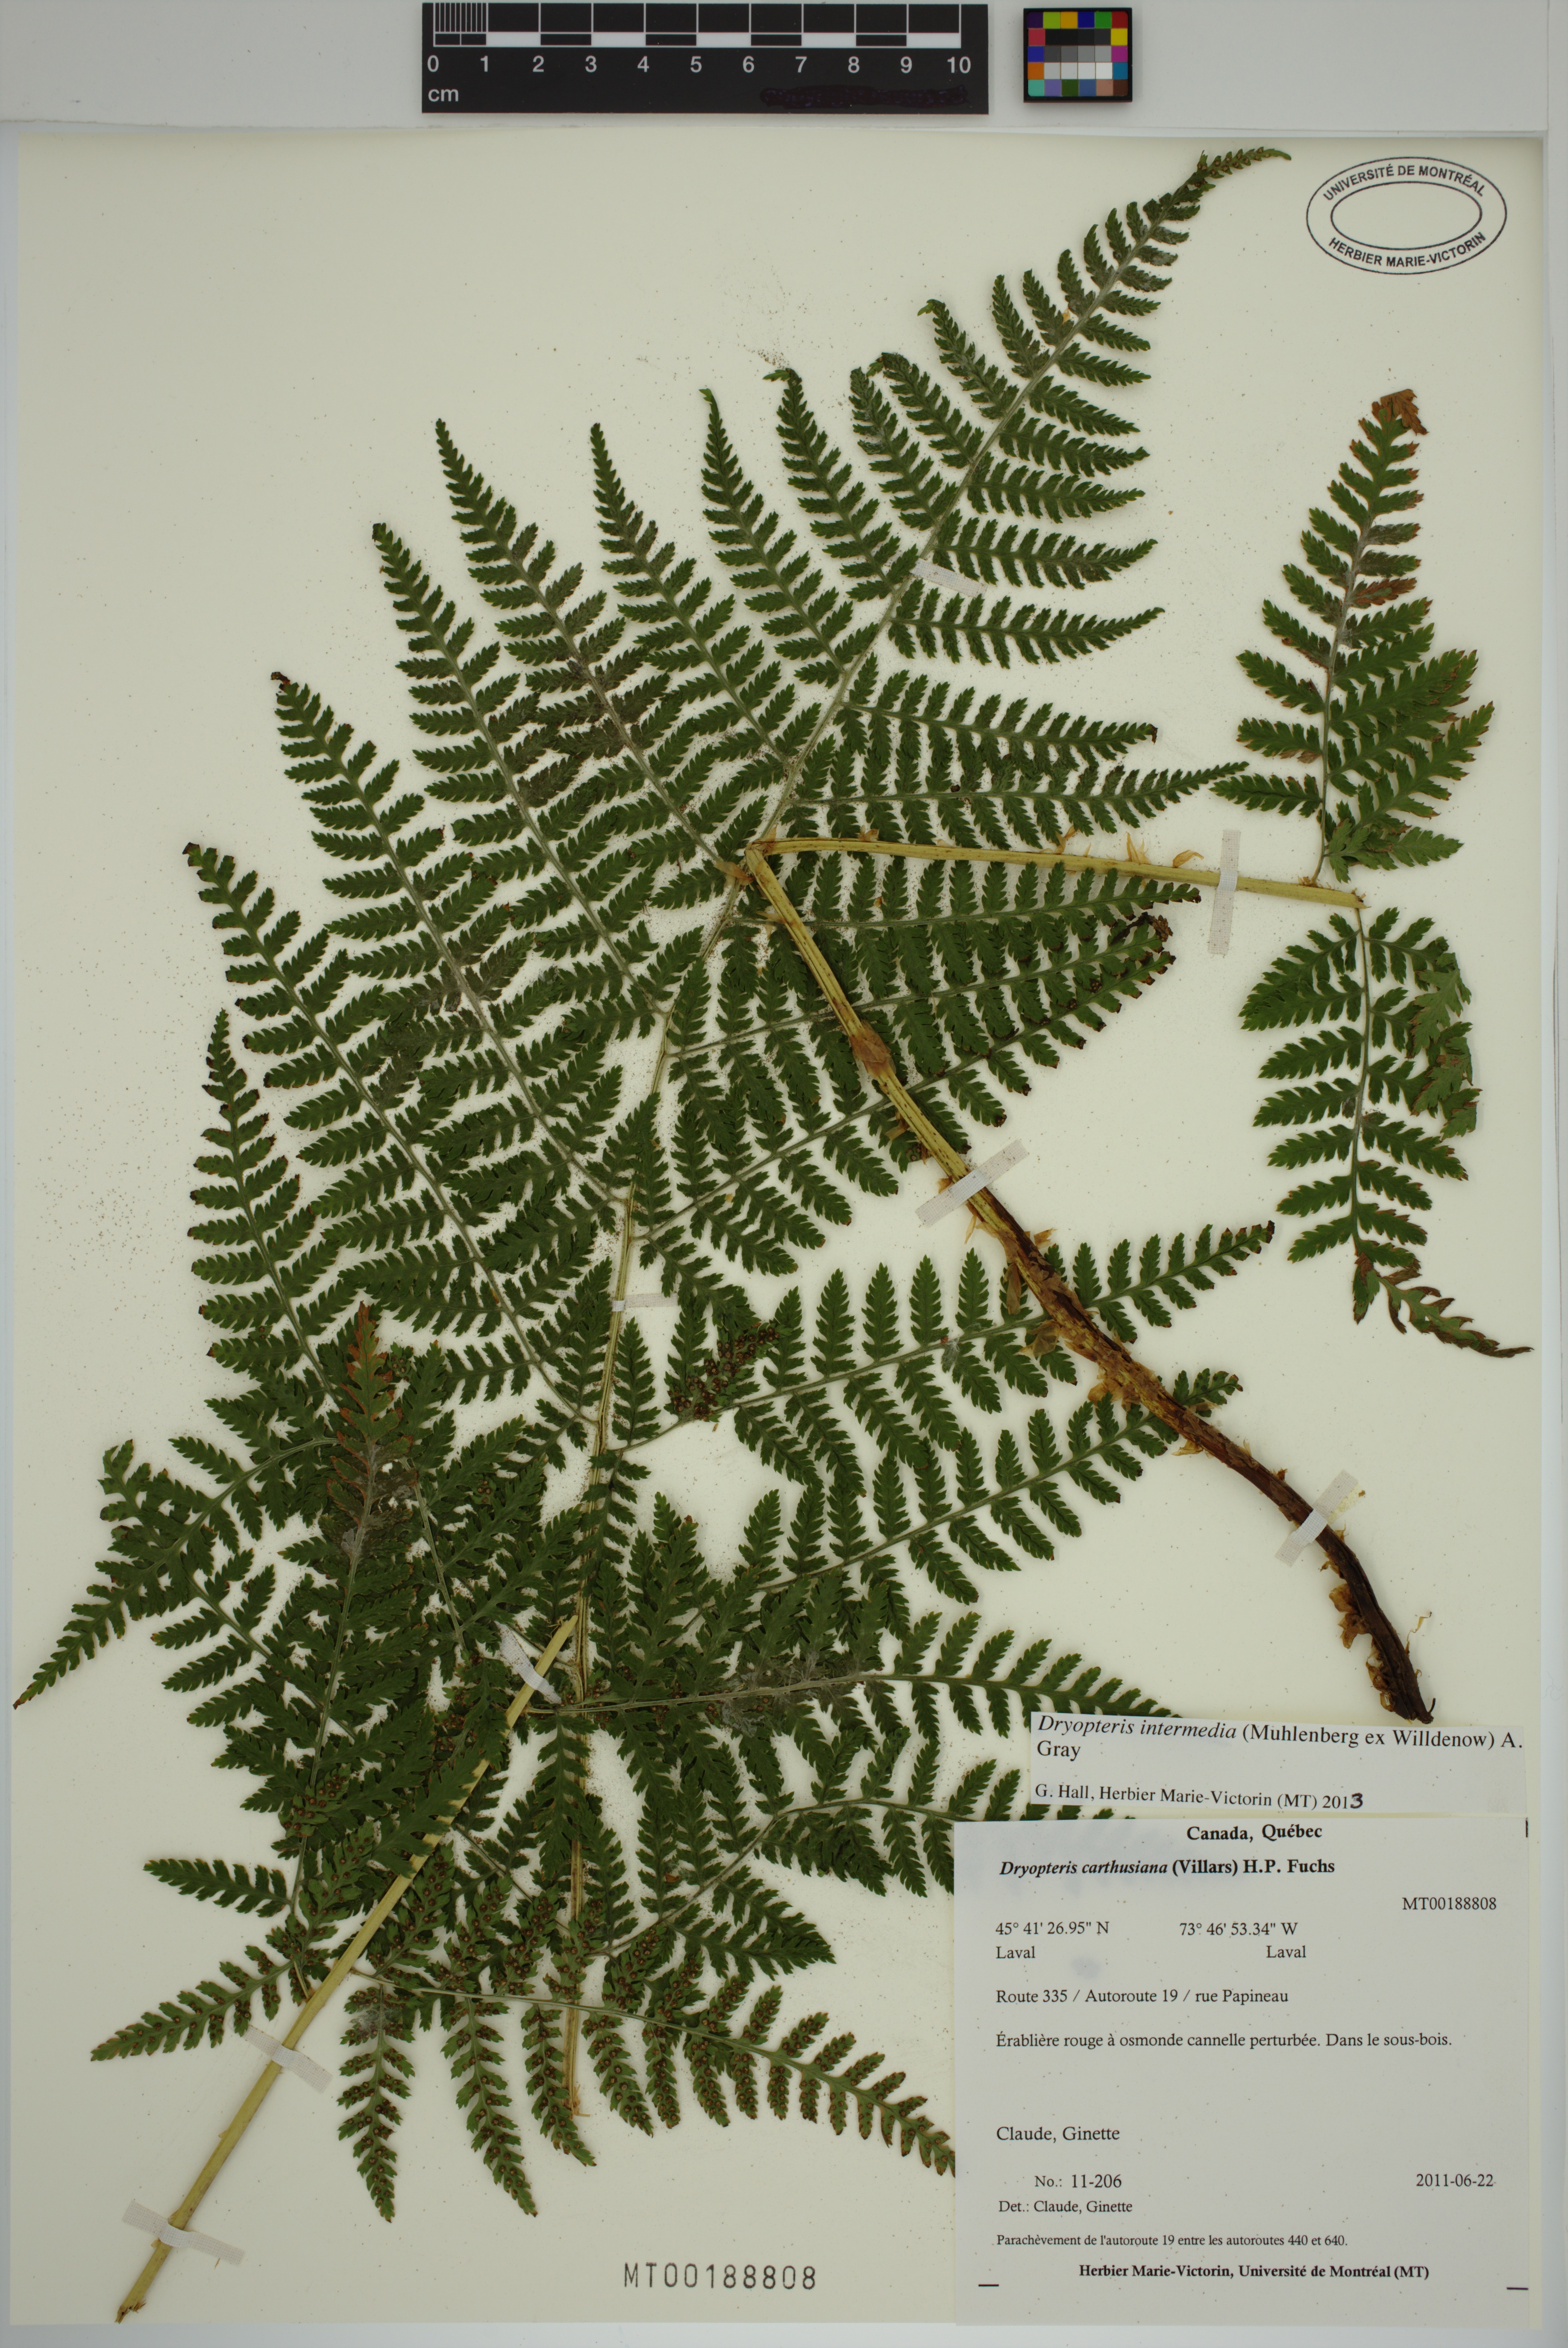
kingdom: Plantae
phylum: Tracheophyta
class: Polypodiopsida
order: Polypodiales
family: Dryopteridaceae
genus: Dryopteris
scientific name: Dryopteris intermedia
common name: Evergreen wood fern
